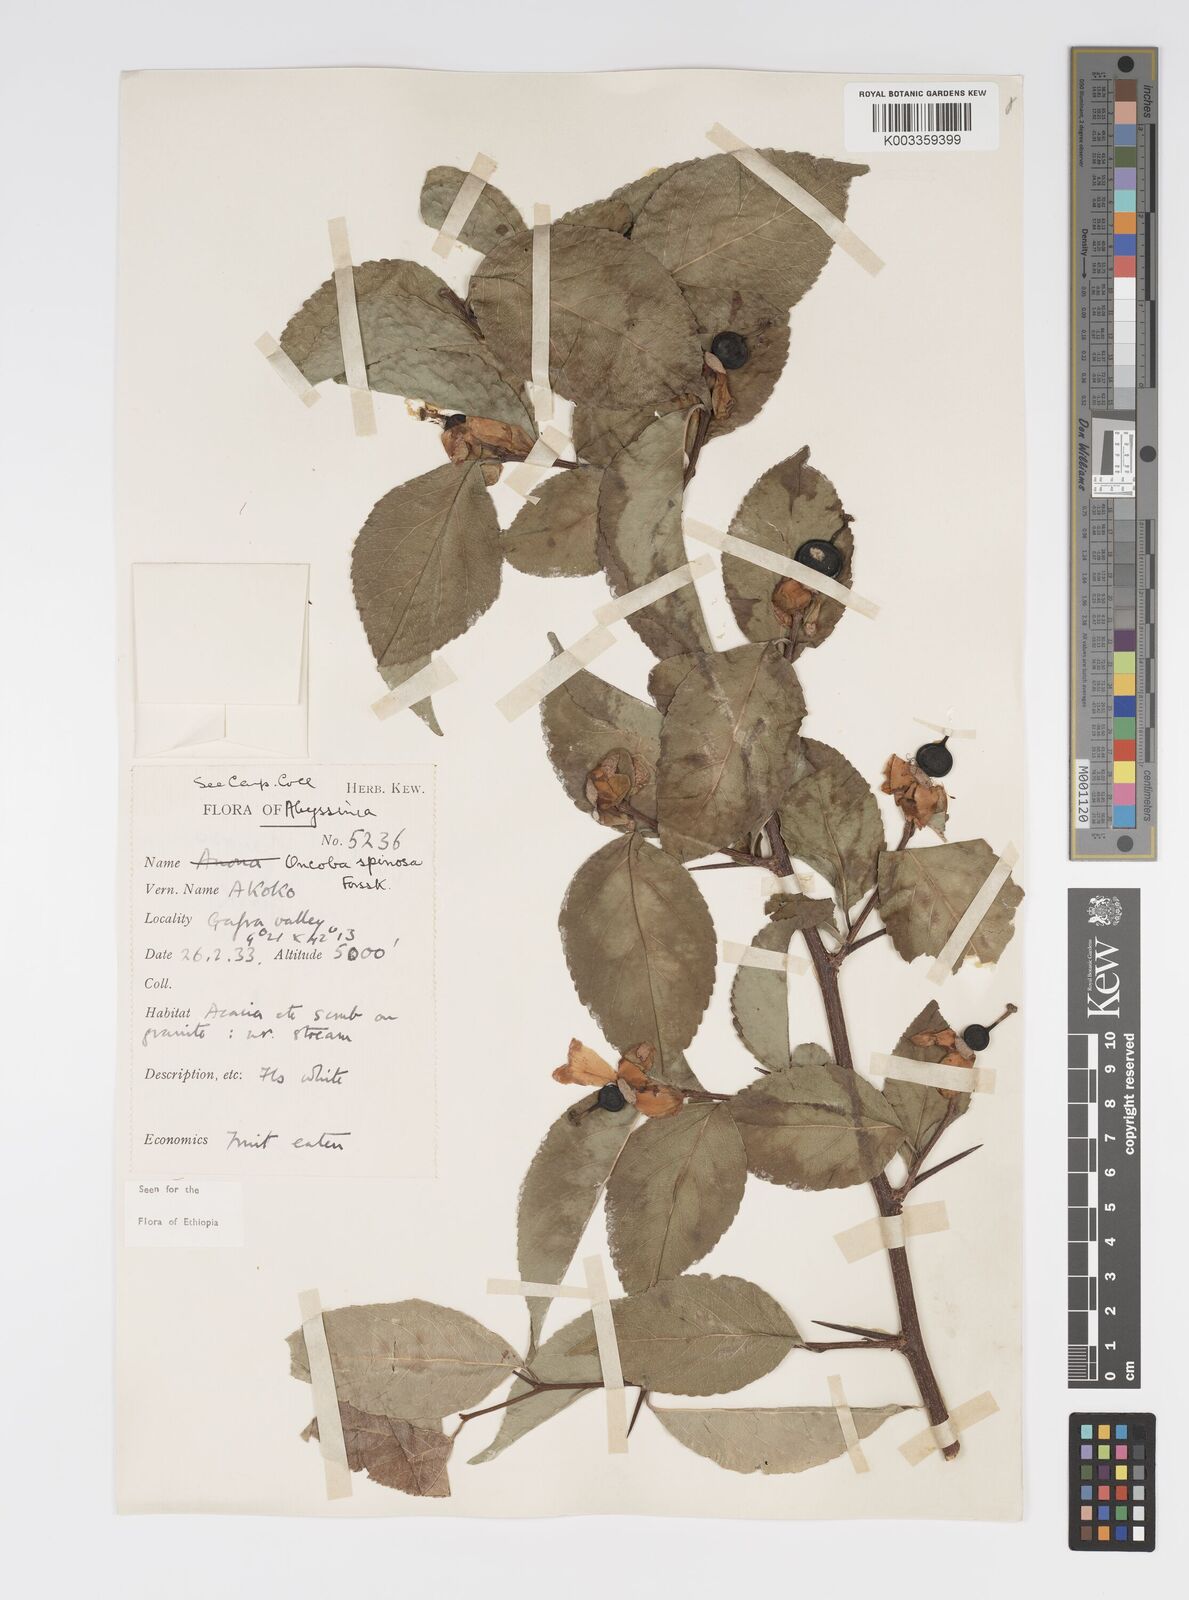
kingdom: Plantae
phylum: Tracheophyta
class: Magnoliopsida
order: Malpighiales
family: Salicaceae
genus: Oncoba
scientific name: Oncoba spinosa
